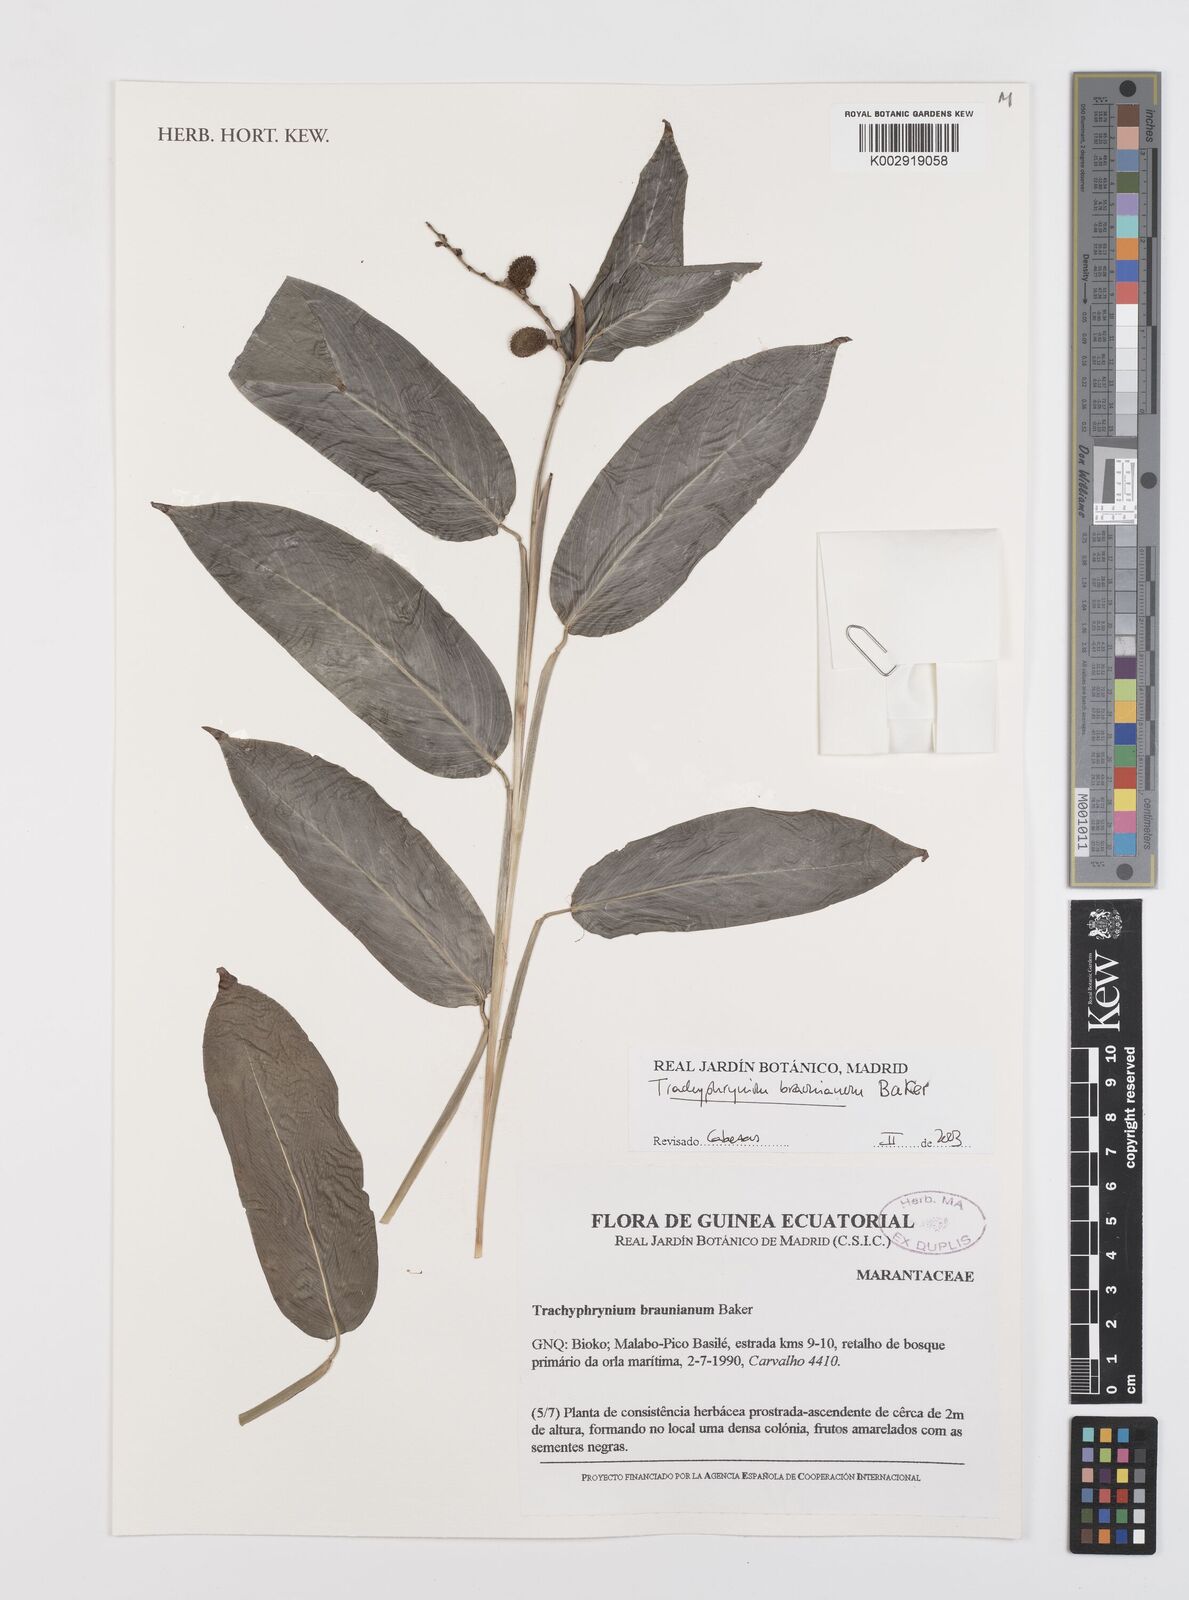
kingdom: Plantae
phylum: Tracheophyta
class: Liliopsida
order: Zingiberales
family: Marantaceae
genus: Trachyphrynium
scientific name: Trachyphrynium braunianum
